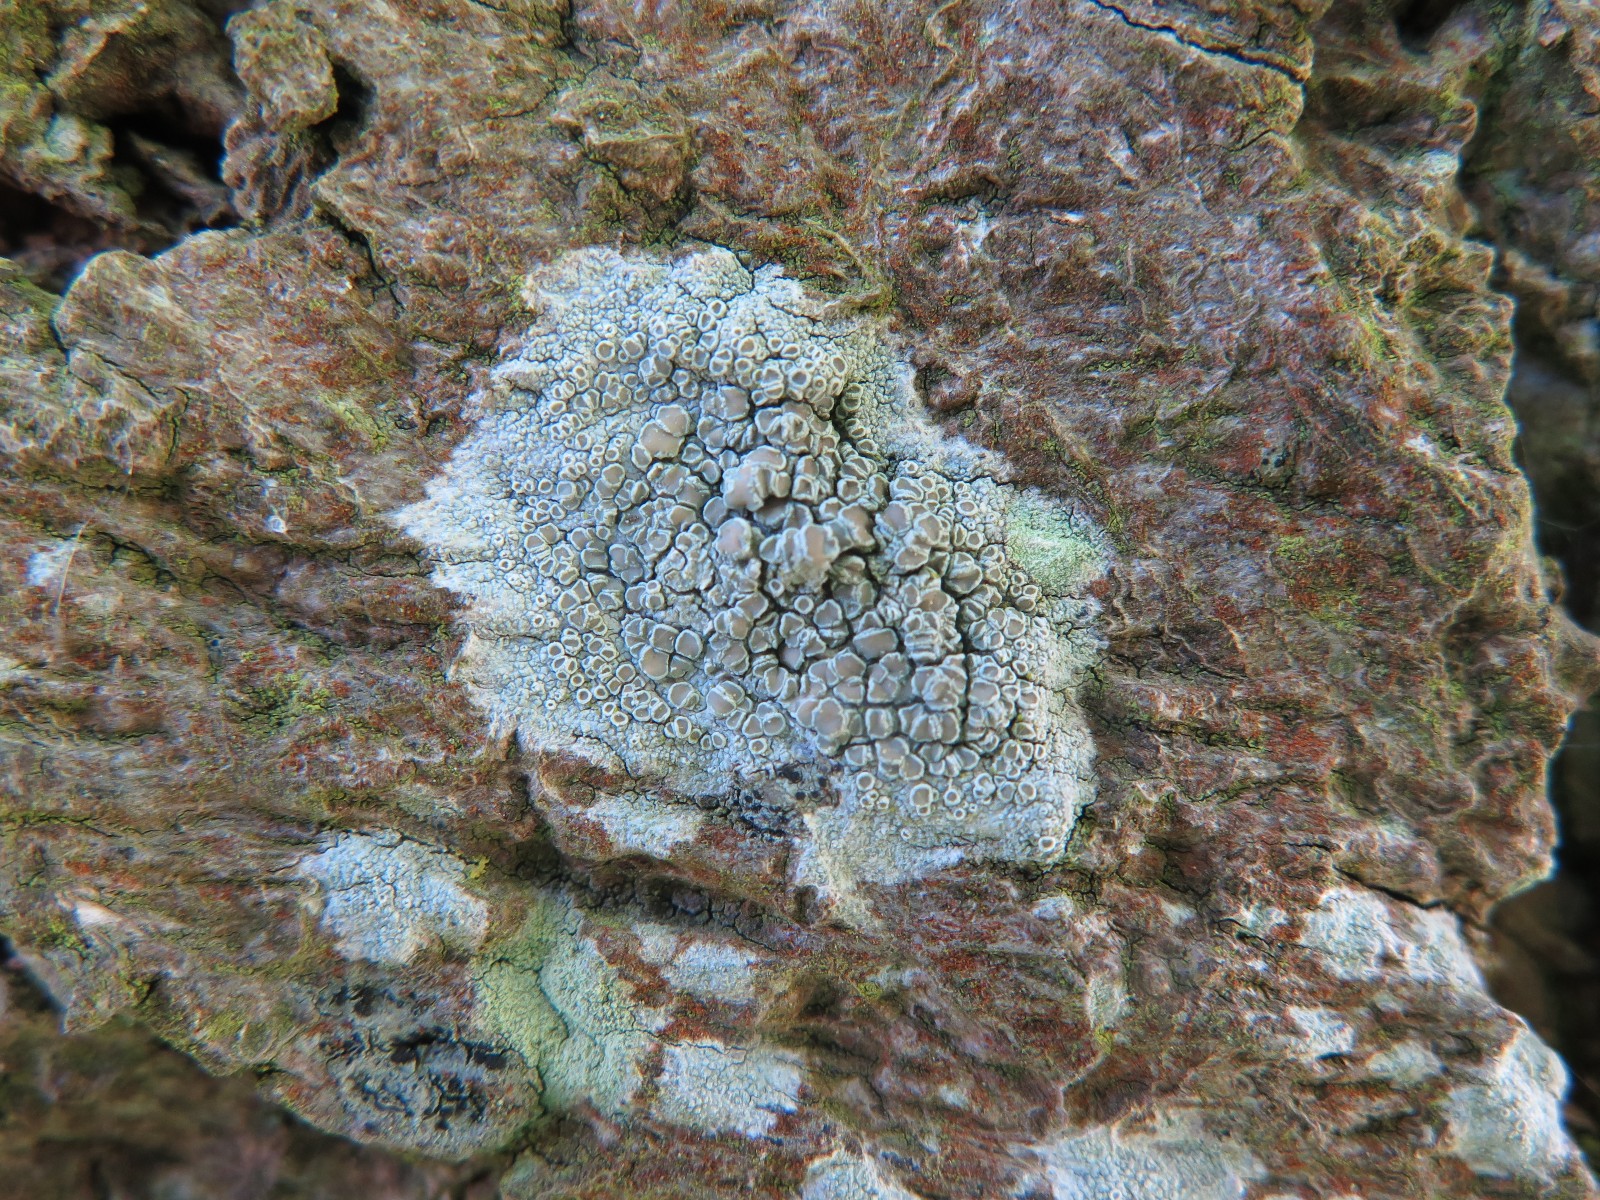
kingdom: Fungi
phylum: Ascomycota
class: Lecanoromycetes
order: Lecanorales
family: Lecanoraceae
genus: Lecanora
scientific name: Lecanora chlarotera
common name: brun kantskivelav
